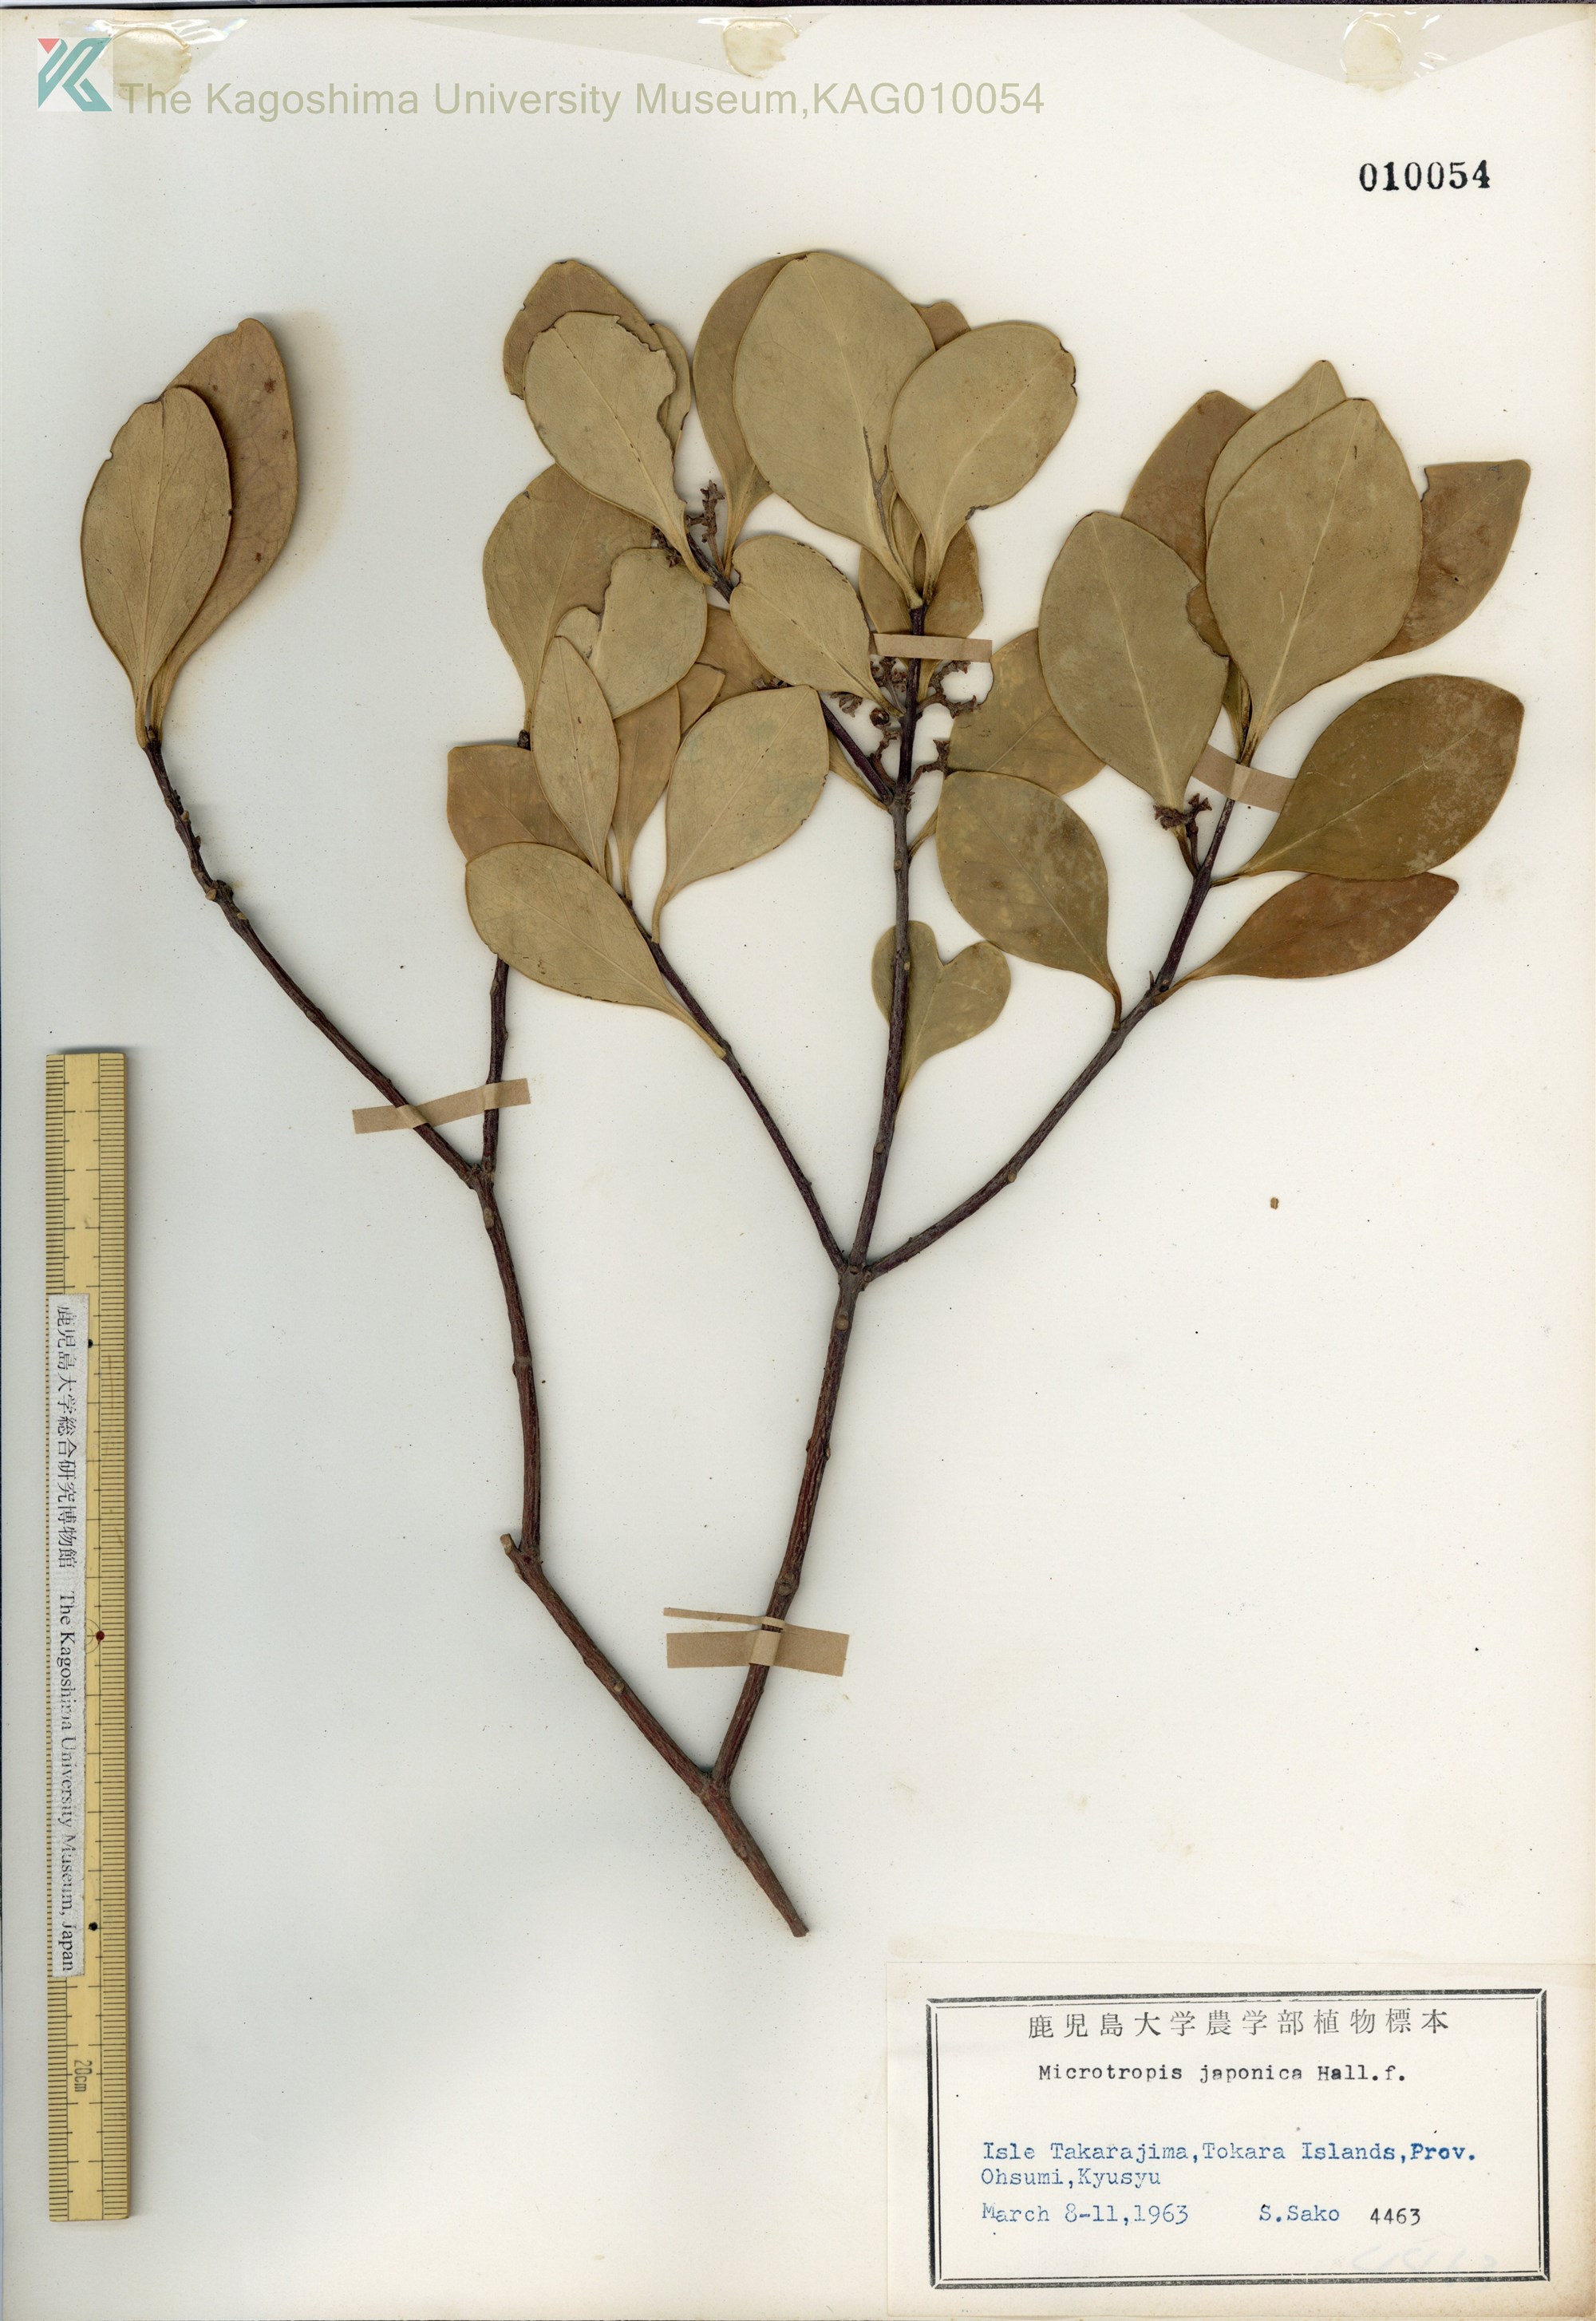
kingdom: Plantae
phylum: Tracheophyta
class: Magnoliopsida
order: Celastrales
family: Celastraceae
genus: Microtropis
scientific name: Microtropis japonica
